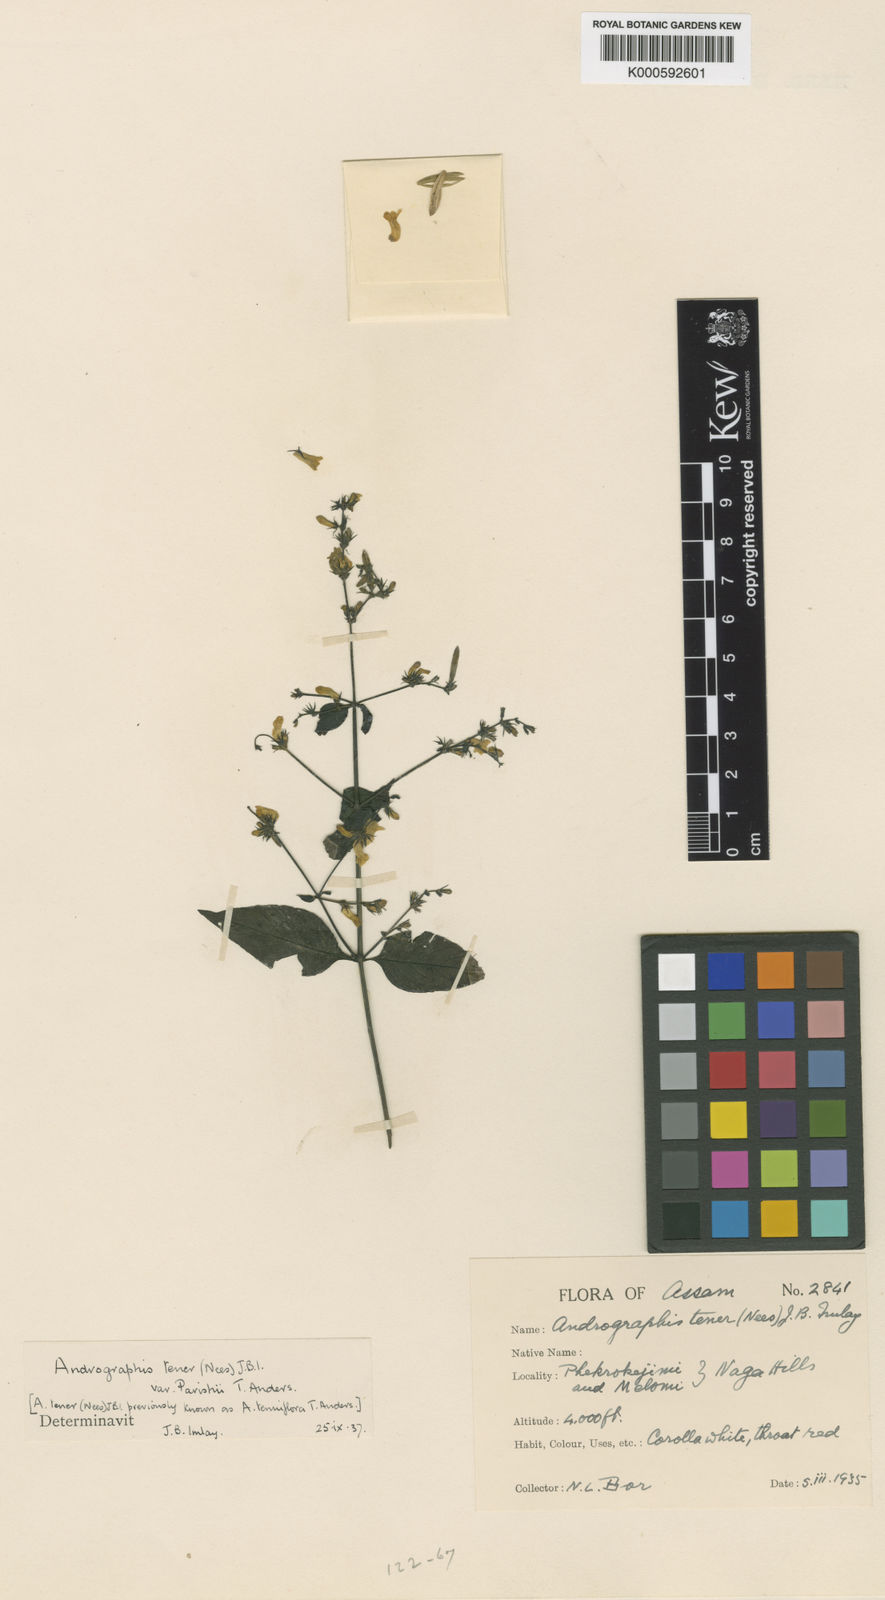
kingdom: Plantae
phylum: Tracheophyta
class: Magnoliopsida
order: Lamiales
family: Acanthaceae
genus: Andrographis
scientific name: Andrographis
